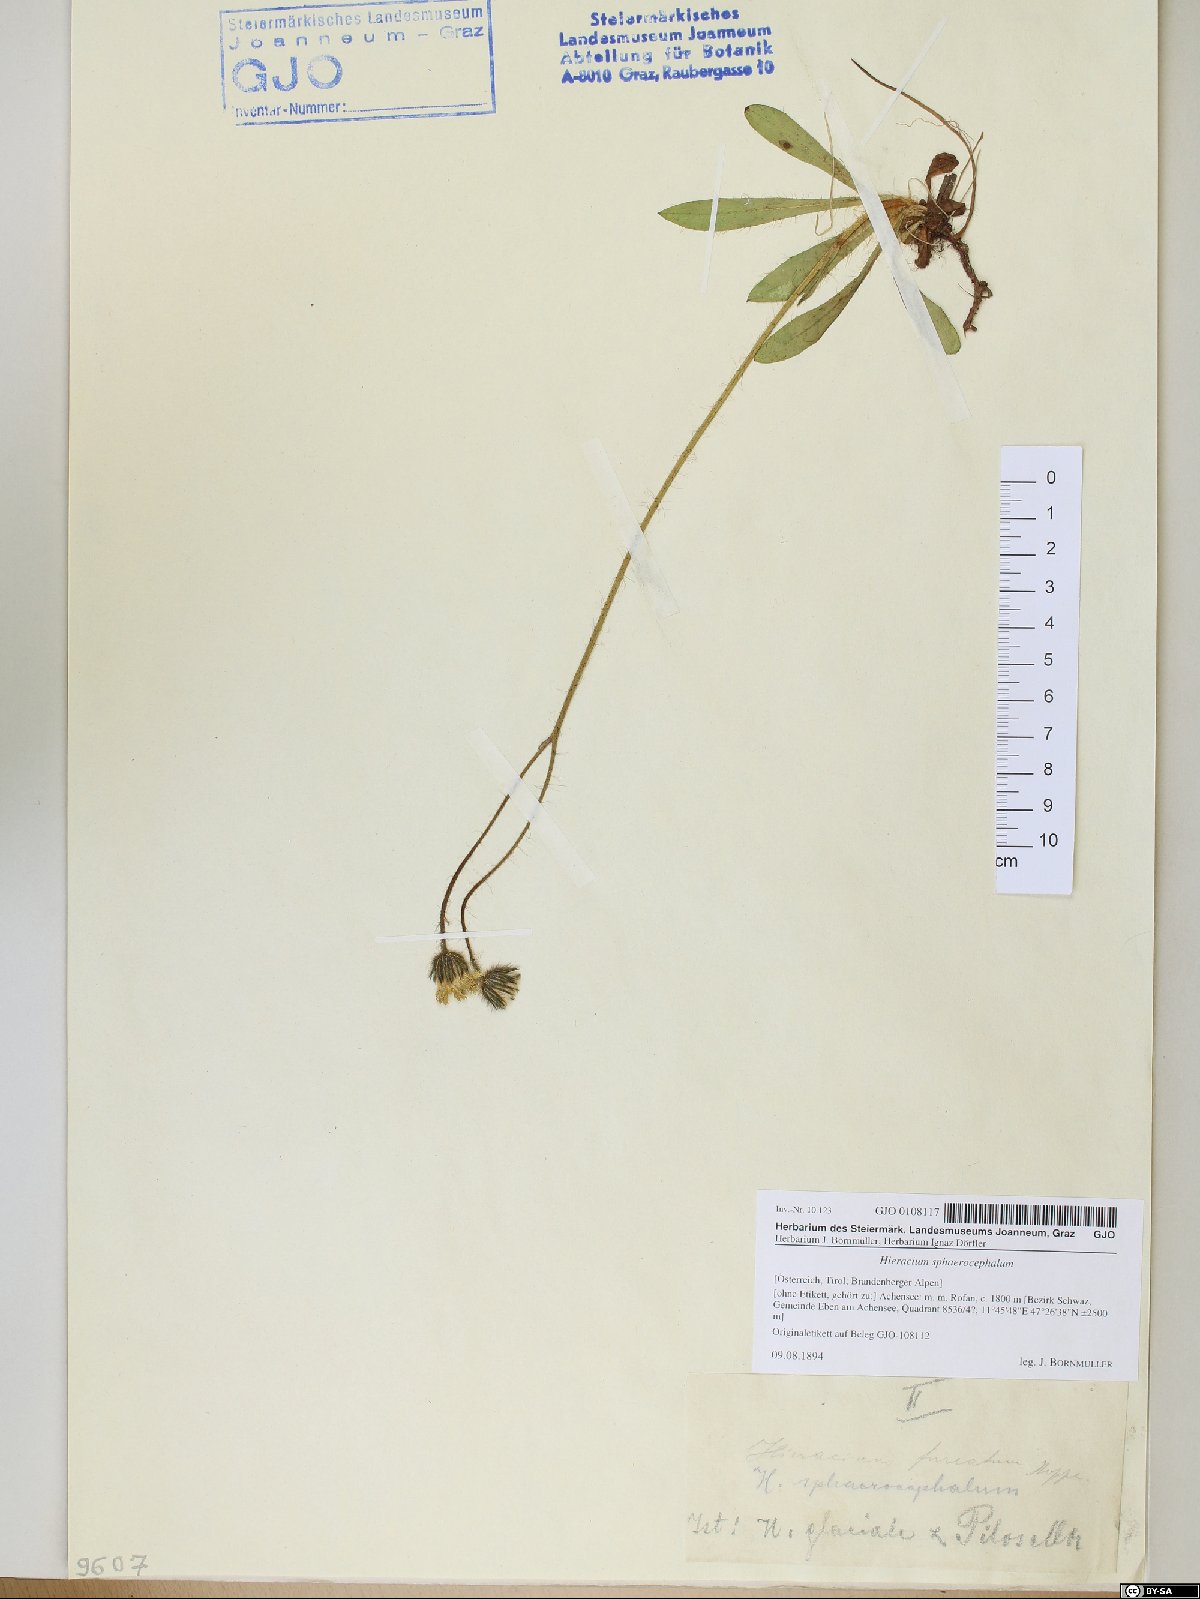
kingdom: Plantae
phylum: Tracheophyta
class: Magnoliopsida
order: Asterales
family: Asteraceae
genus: Pilosella
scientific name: Pilosella sphaerocephala
